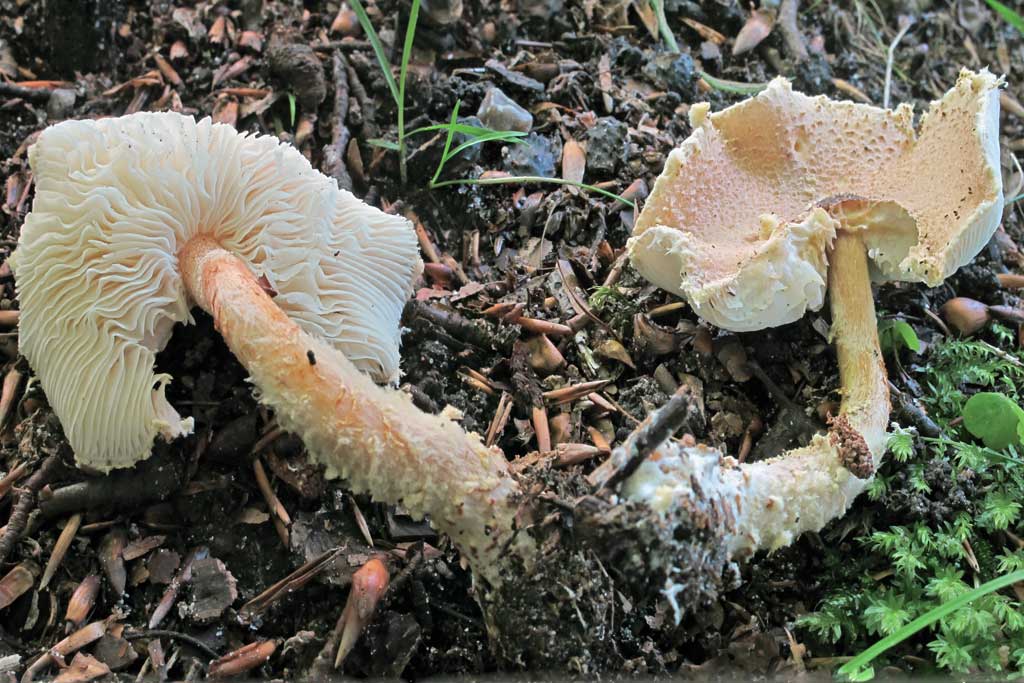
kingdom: Fungi
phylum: Basidiomycota
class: Agaricomycetes
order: Agaricales
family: Agaricaceae
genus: Lepiota
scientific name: Lepiota magnispora
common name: gulfnugget parasolhat
